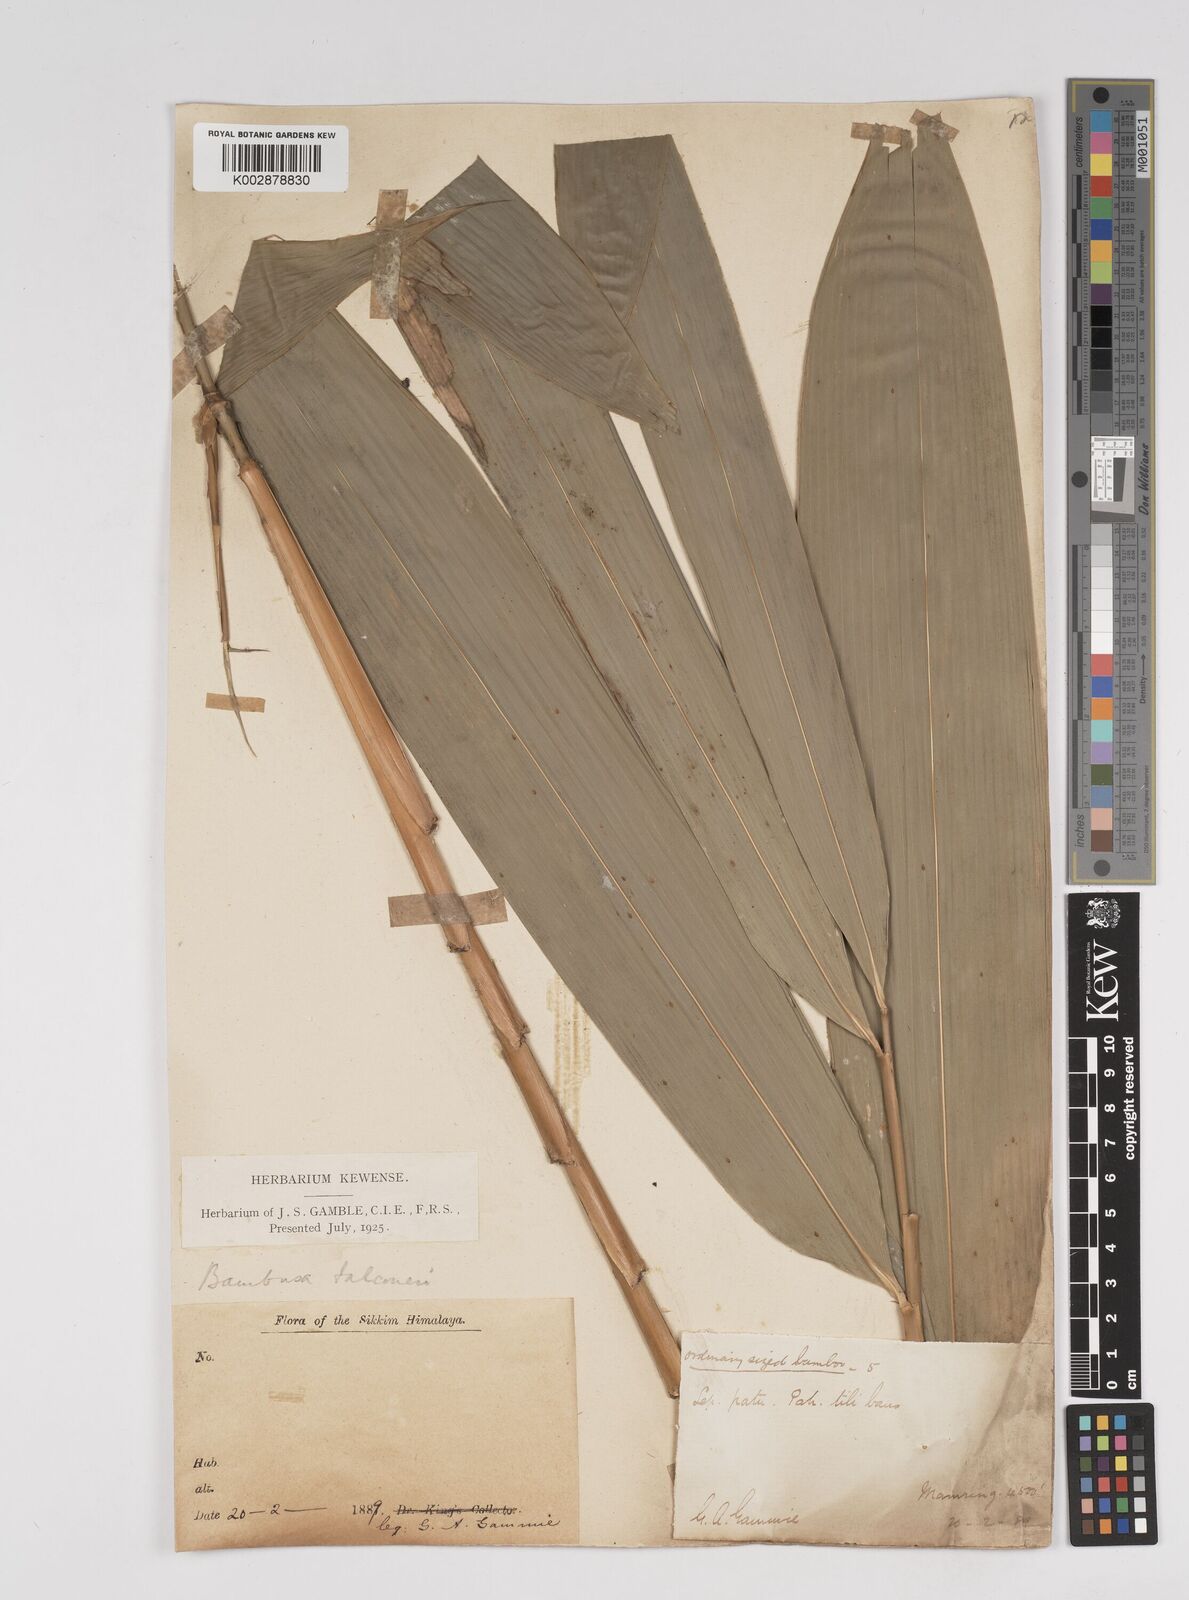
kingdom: Plantae
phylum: Tracheophyta
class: Liliopsida
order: Poales
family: Poaceae
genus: Dendrocalamus
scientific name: Dendrocalamus hookeri
